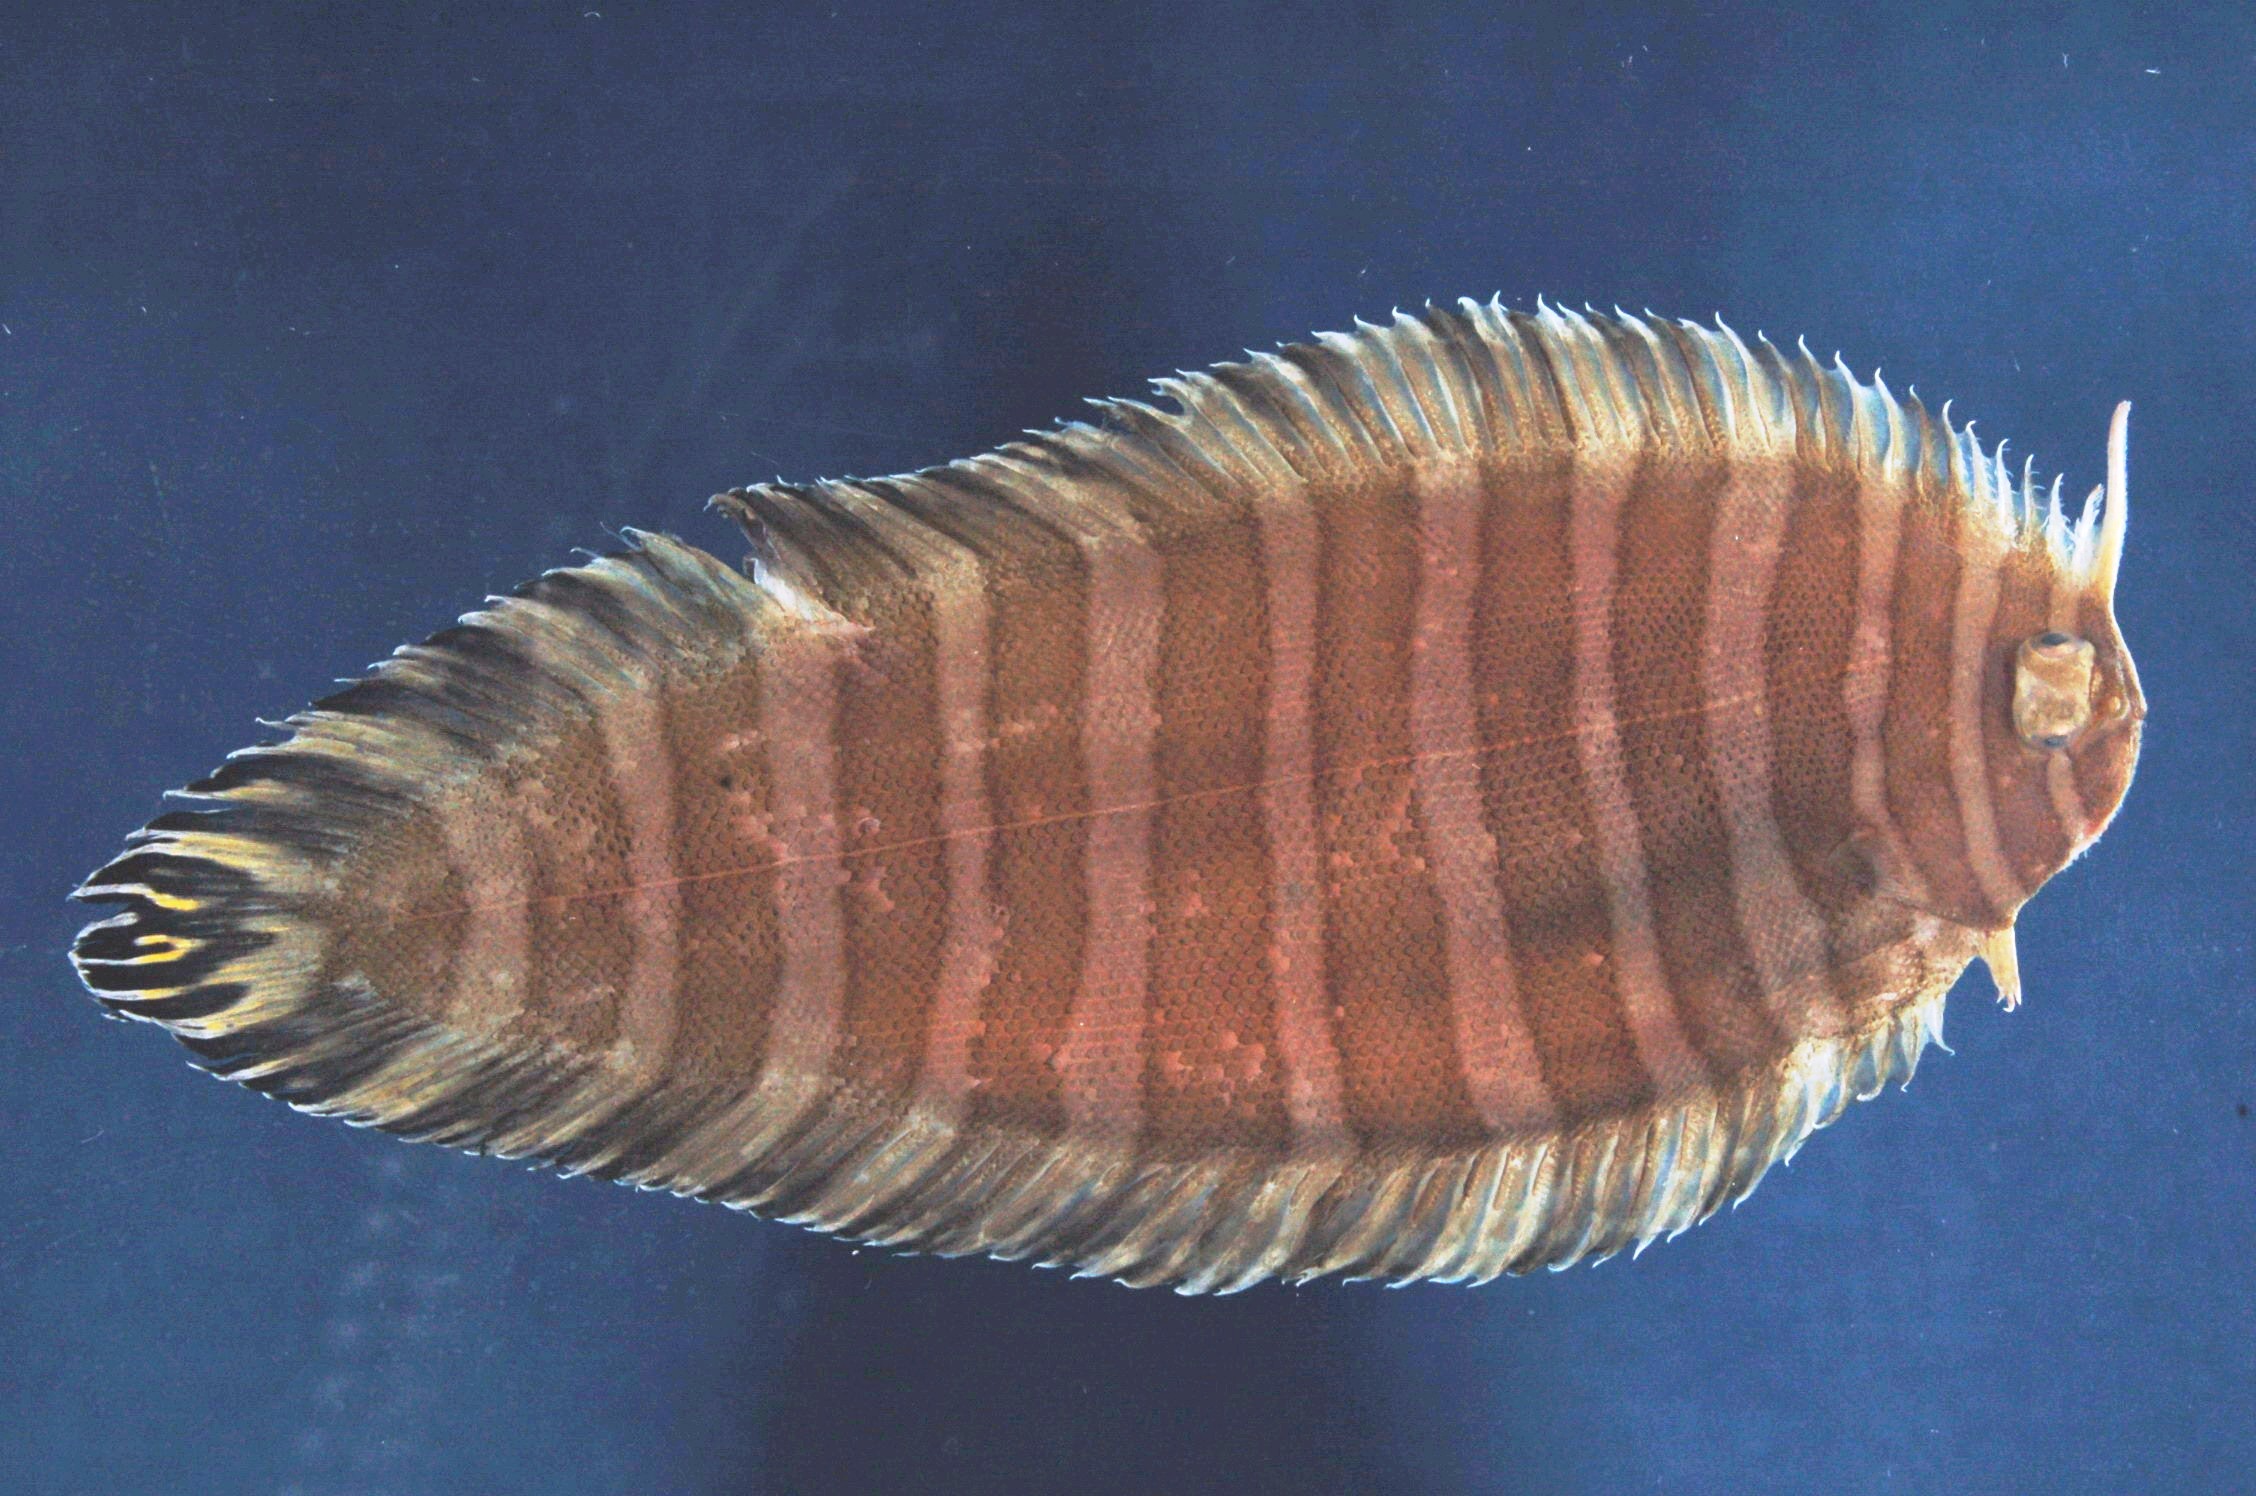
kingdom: Animalia
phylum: Chordata
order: Pleuronectiformes
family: Soleidae
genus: Aesopia
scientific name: Aesopia cornuta
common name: Unicorn sole
